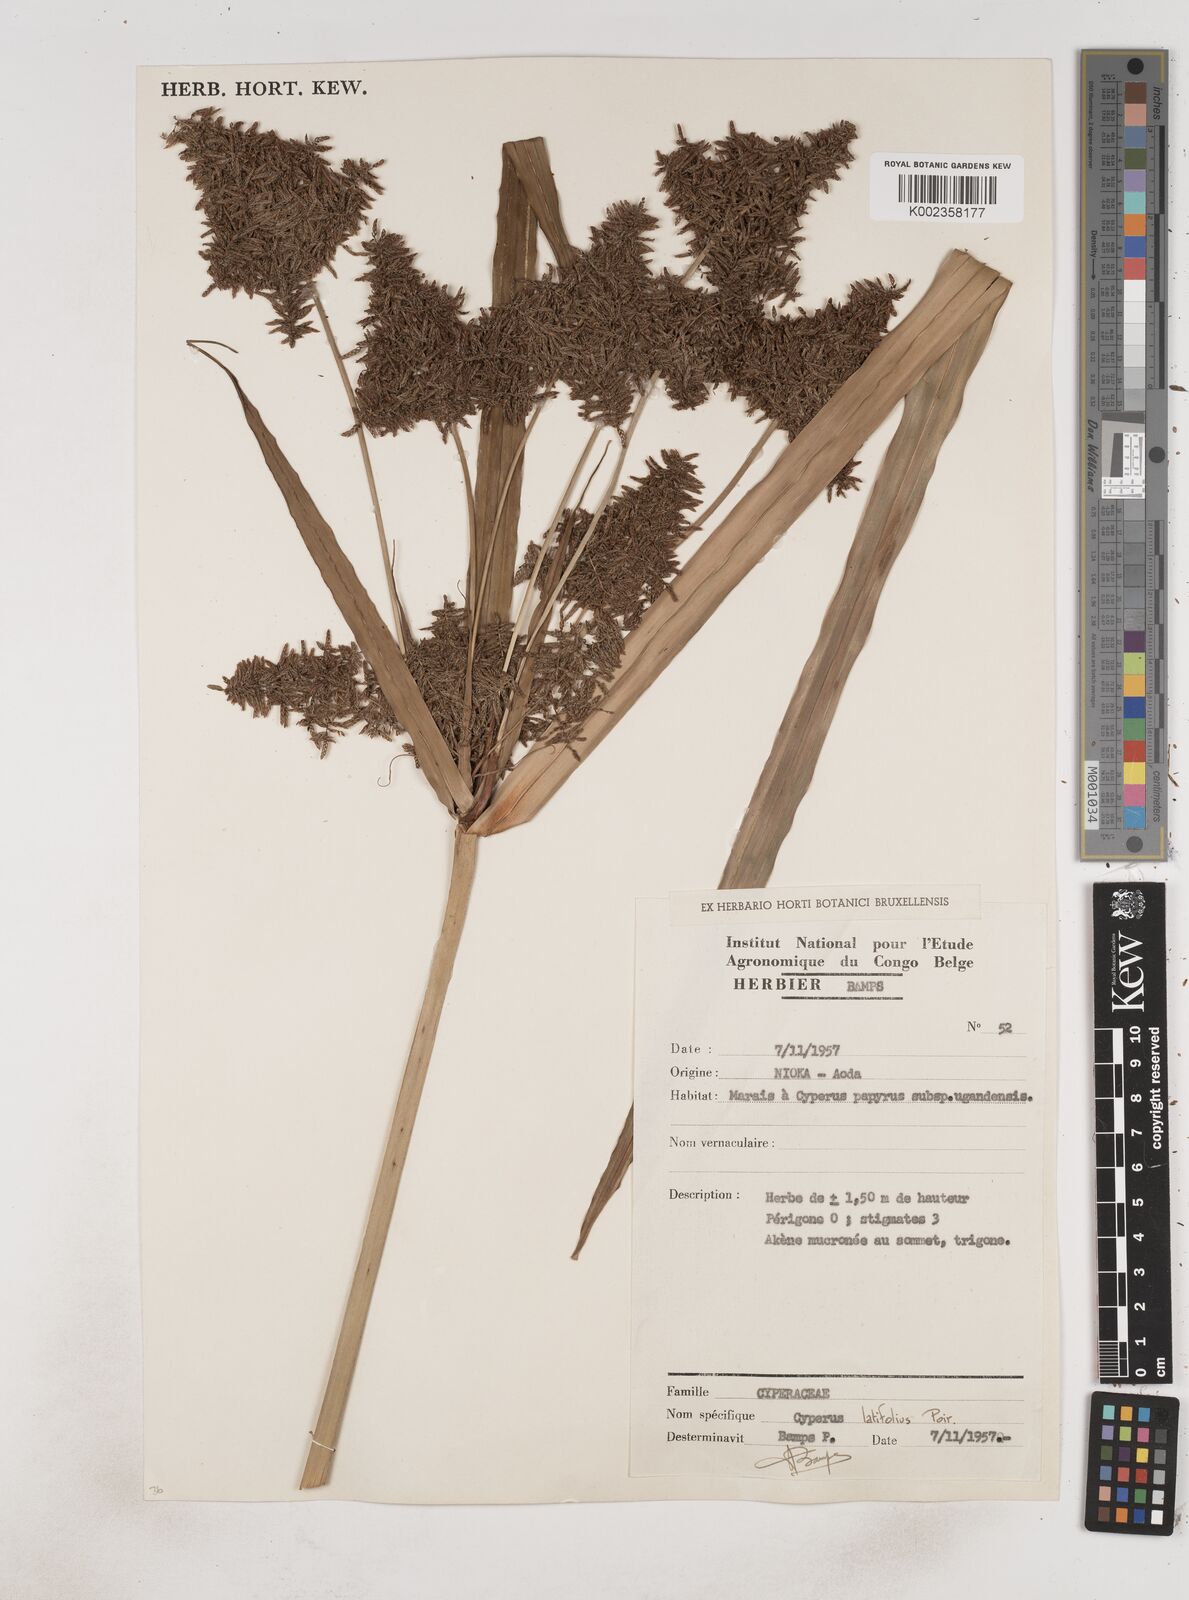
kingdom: Plantae
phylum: Tracheophyta
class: Liliopsida
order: Poales
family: Cyperaceae
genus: Cyperus
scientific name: Cyperus latifolius
